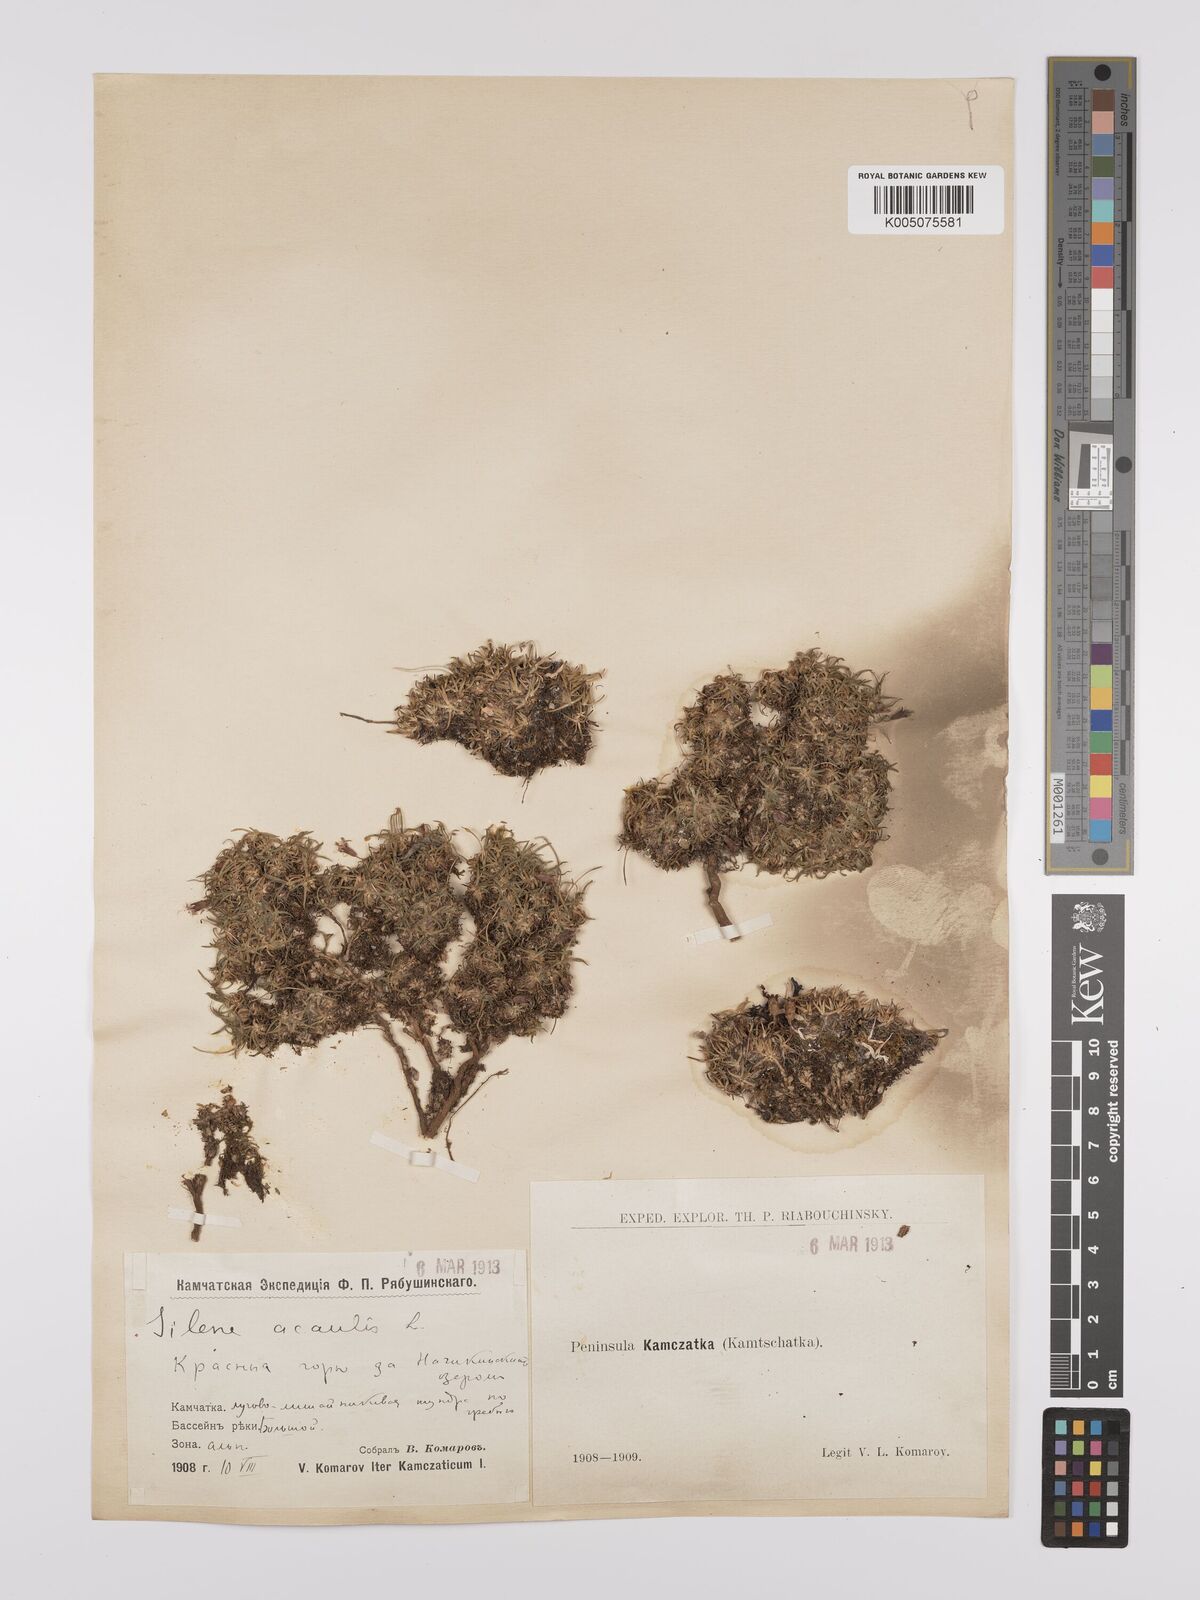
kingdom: Plantae
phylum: Tracheophyta
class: Magnoliopsida
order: Caryophyllales
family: Caryophyllaceae
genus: Silene
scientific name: Silene
